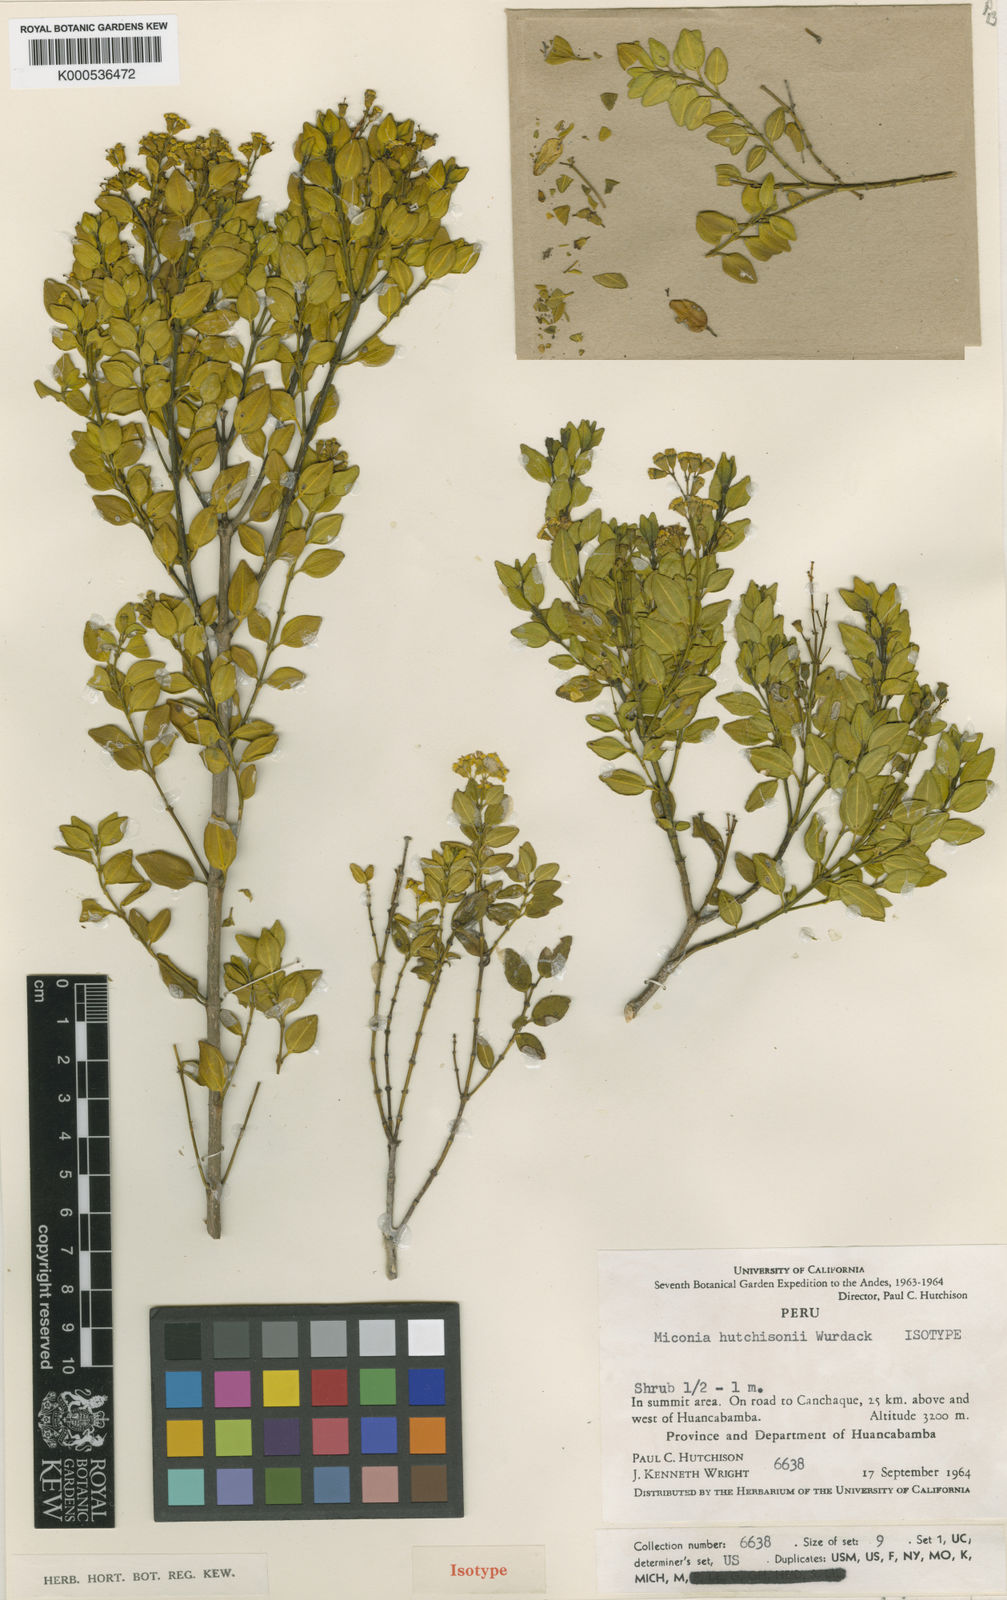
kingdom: Plantae
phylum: Tracheophyta
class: Magnoliopsida
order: Myrtales
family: Melastomataceae
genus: Miconia
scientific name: Miconia hutchisonii
